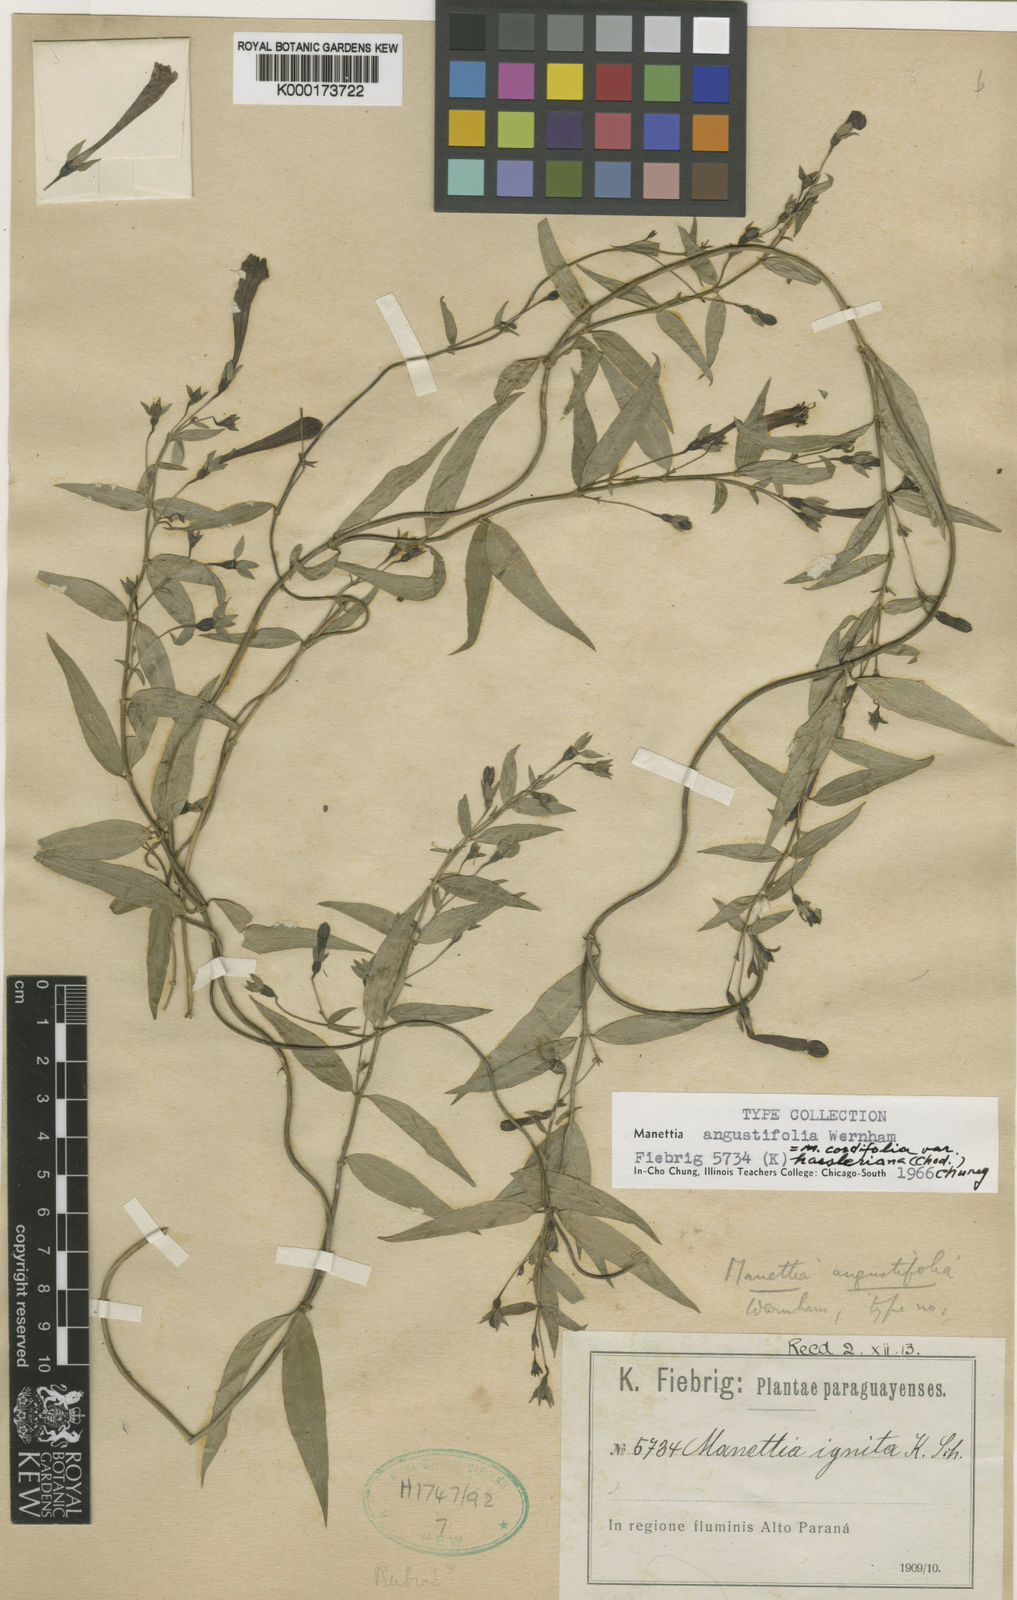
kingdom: Plantae
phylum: Tracheophyta
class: Magnoliopsida
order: Gentianales
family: Rubiaceae
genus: Manettia
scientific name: Manettia tweedieana
